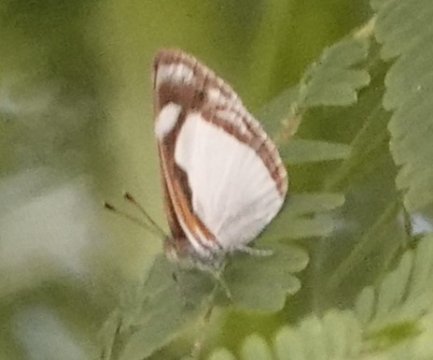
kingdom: Animalia
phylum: Arthropoda
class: Insecta
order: Lepidoptera
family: Nymphalidae
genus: Dynamine
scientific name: Dynamine agacles
